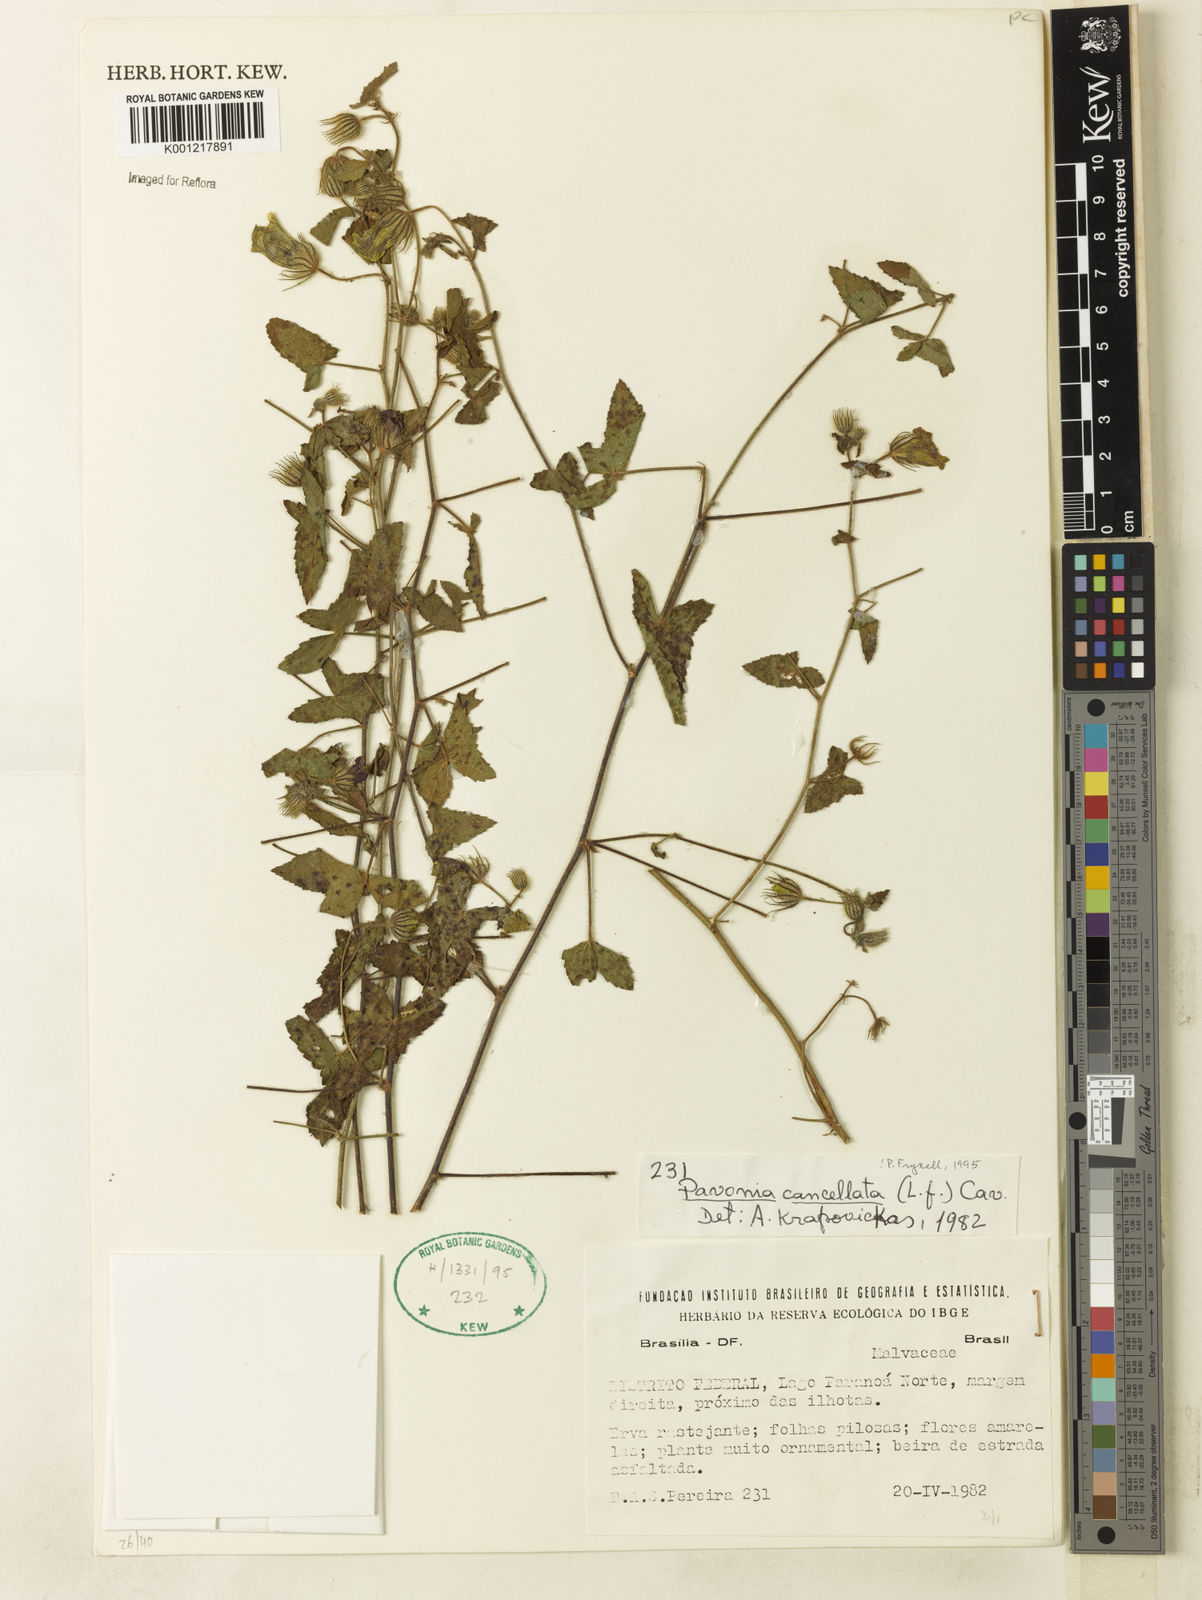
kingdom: Plantae
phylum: Tracheophyta
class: Magnoliopsida
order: Malvales
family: Malvaceae
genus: Pavonia
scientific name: Pavonia cancellata
